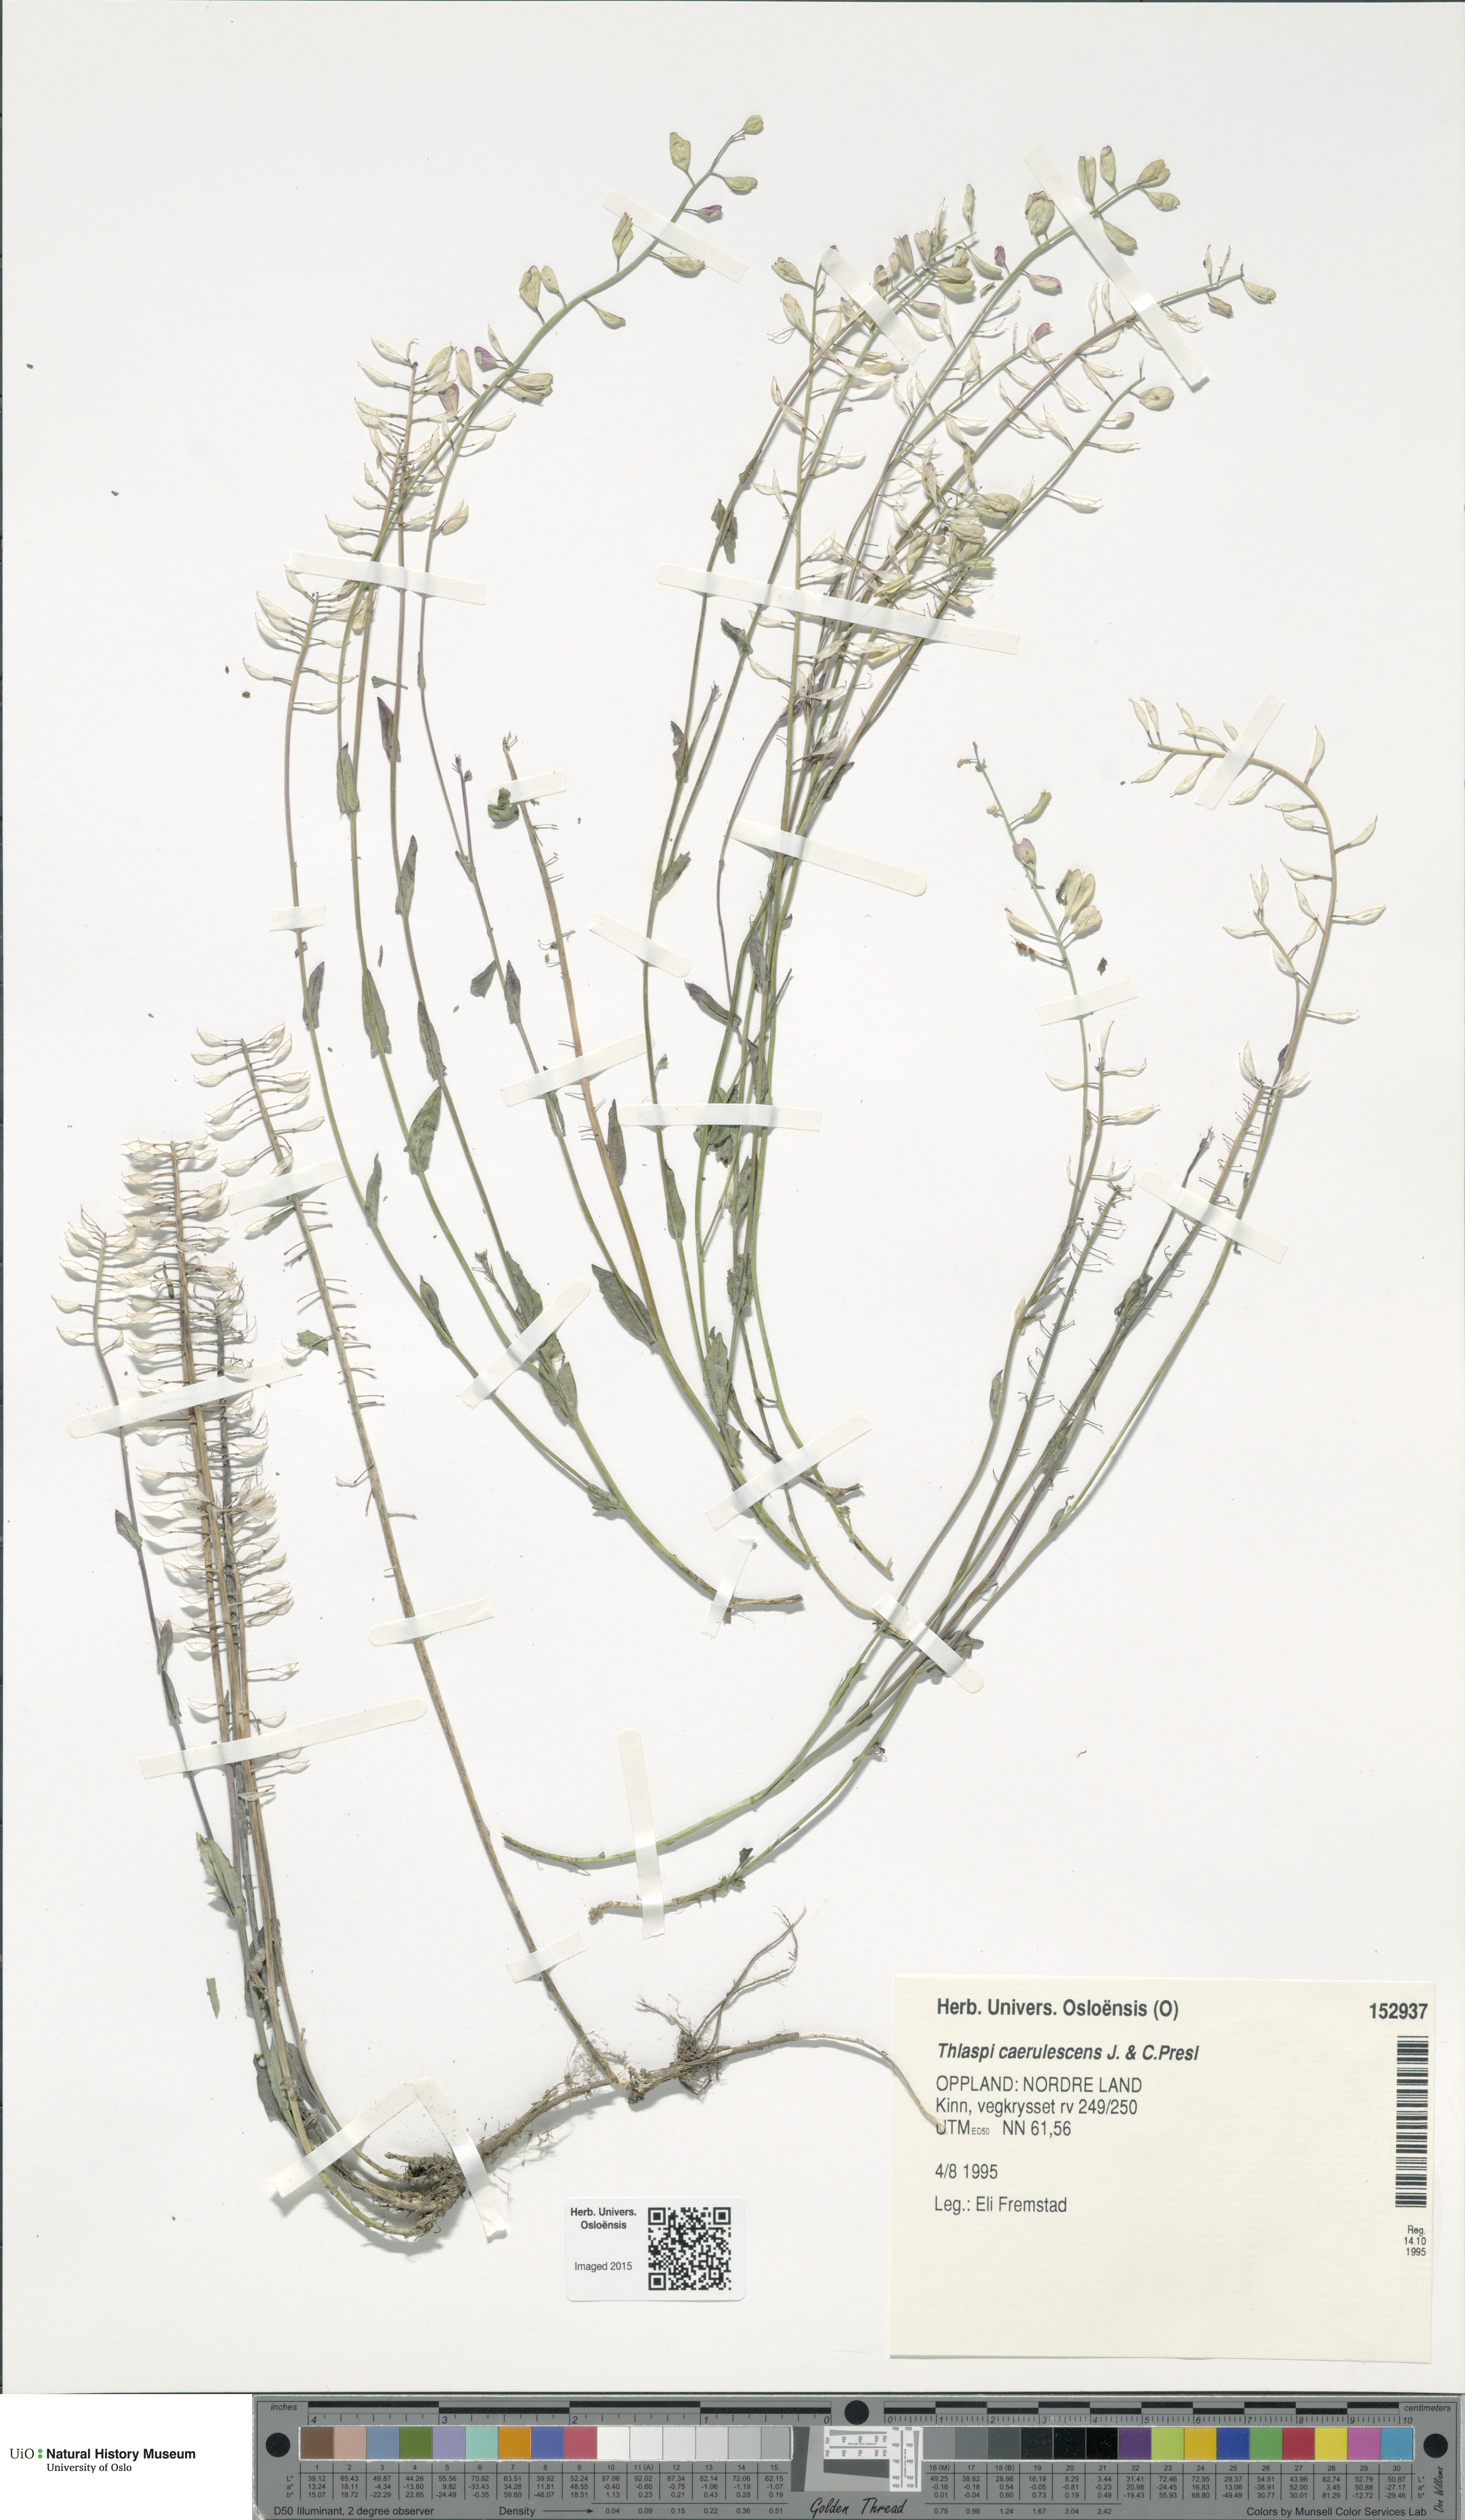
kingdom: Plantae
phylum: Tracheophyta
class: Magnoliopsida
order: Brassicales
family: Brassicaceae
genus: Noccaea
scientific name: Noccaea caerulescens
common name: Alpine pennycress
